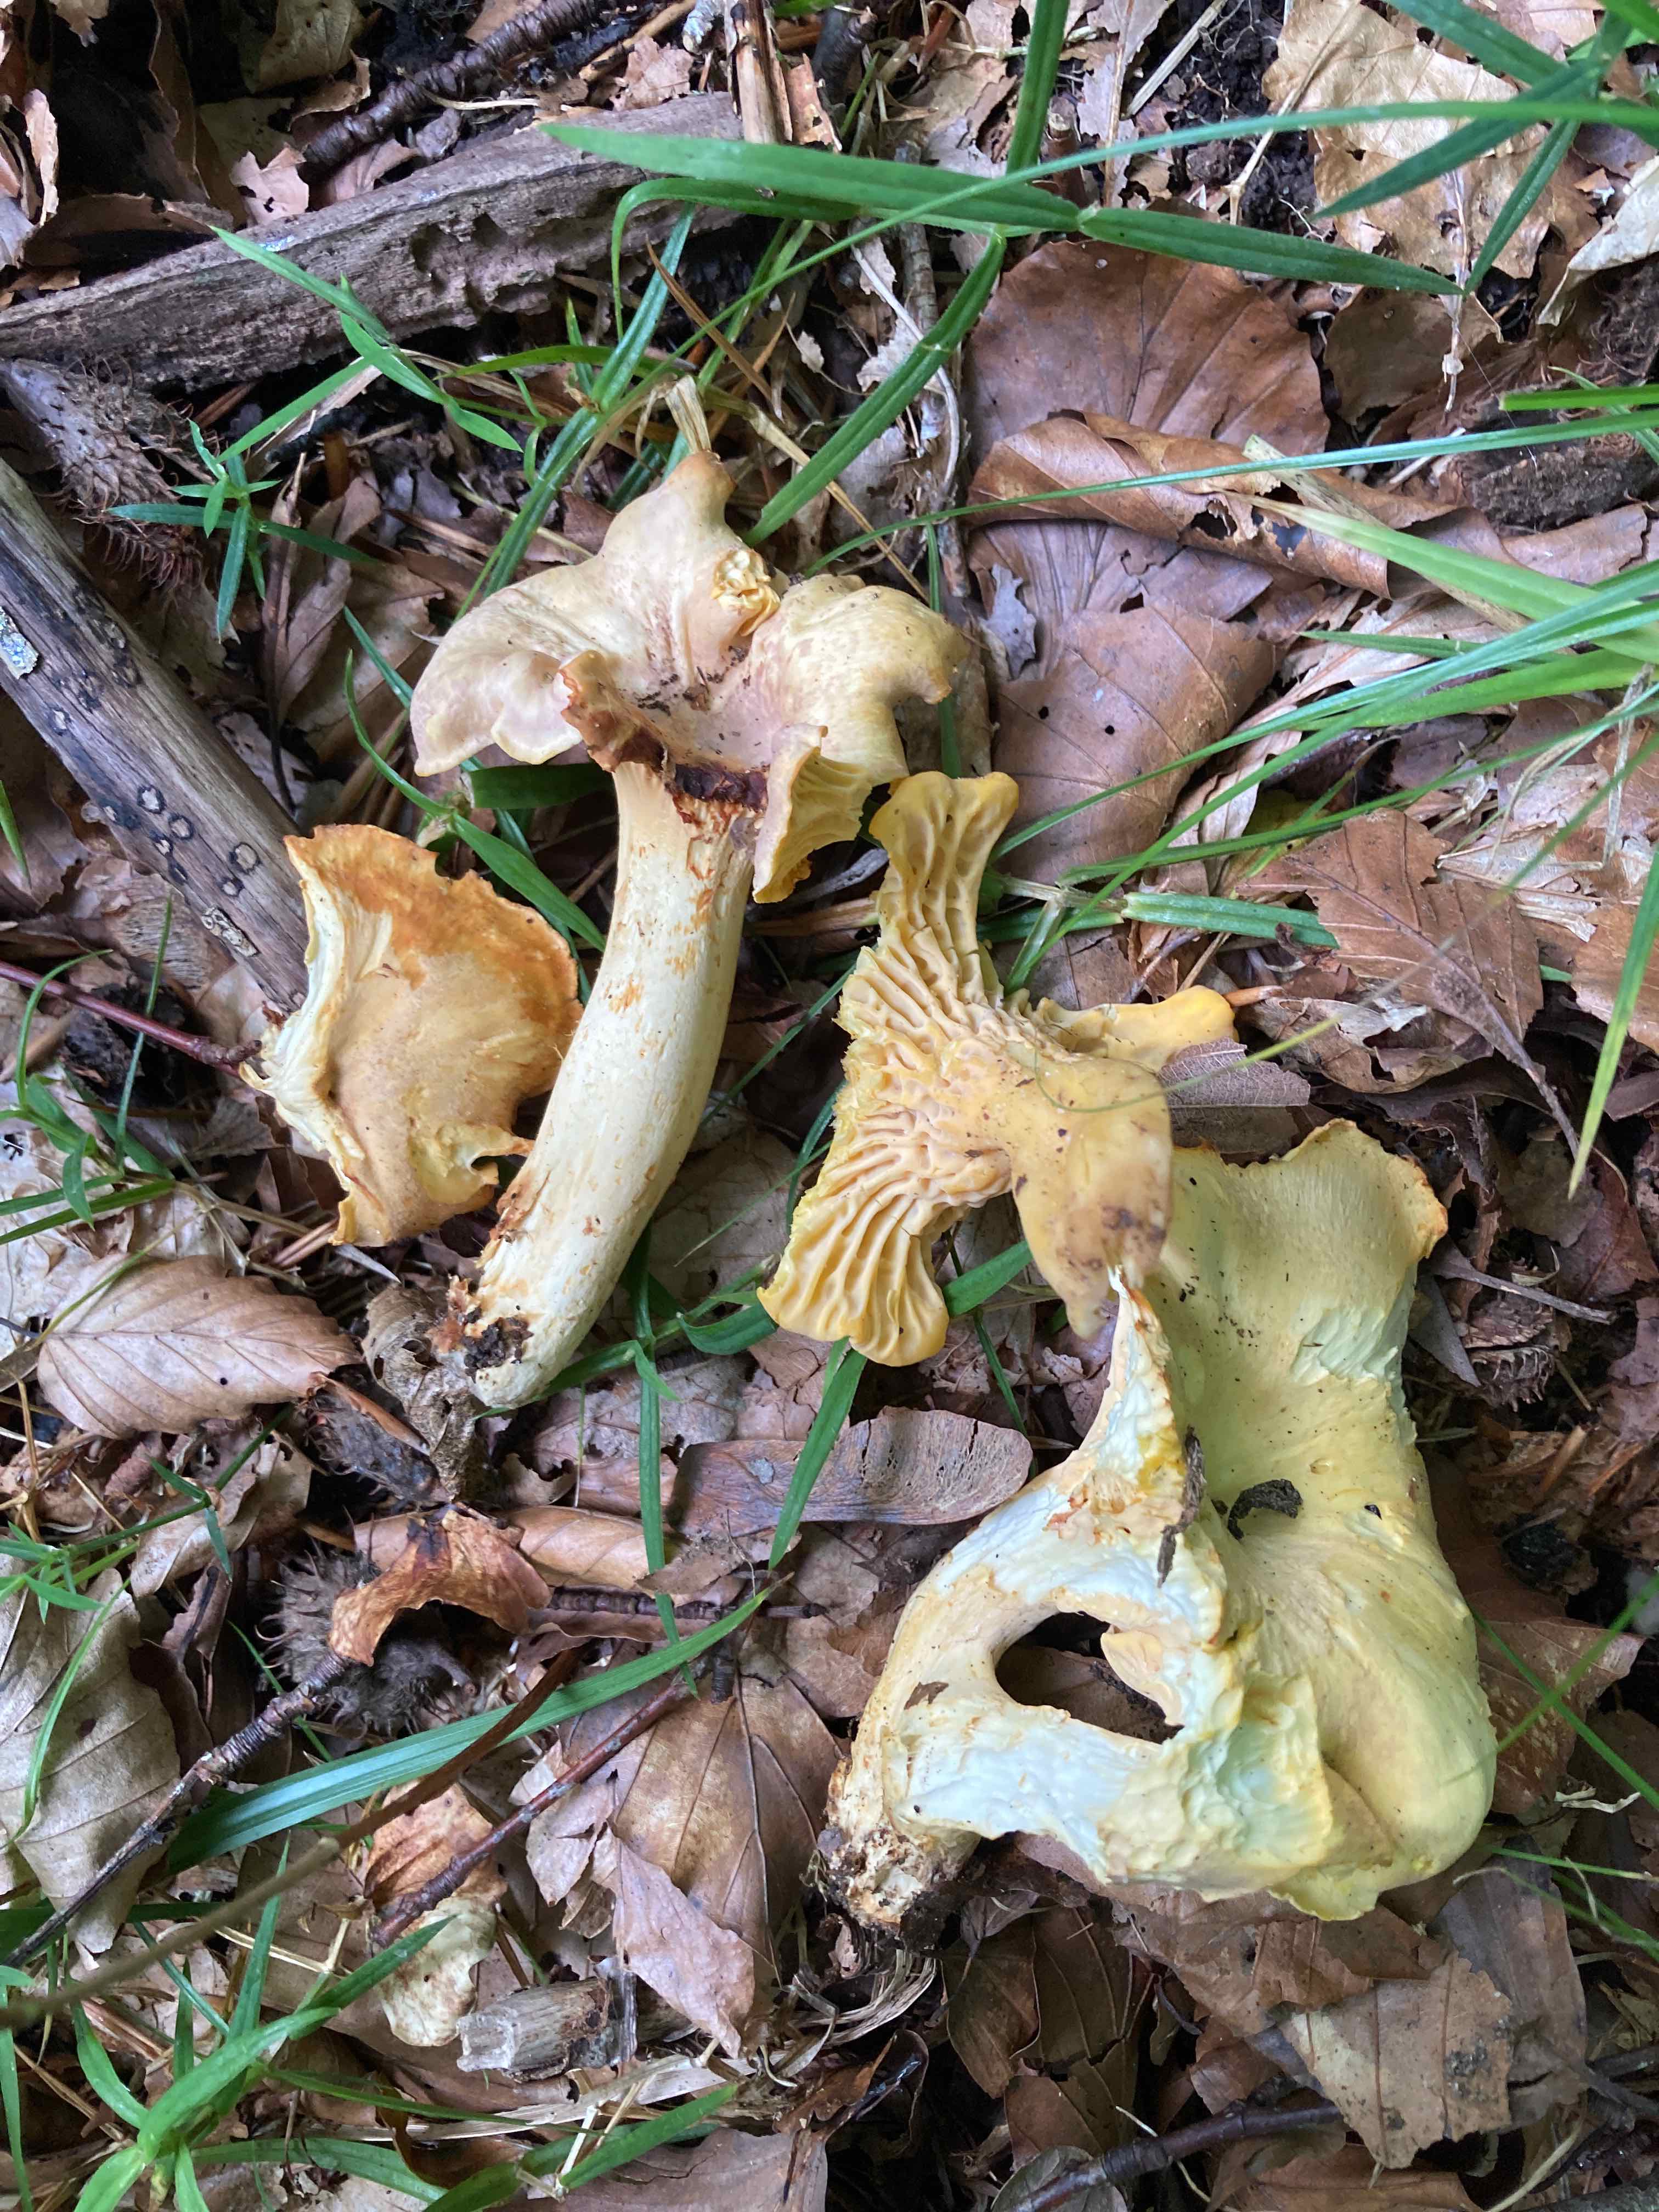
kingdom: Fungi
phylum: Basidiomycota
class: Agaricomycetes
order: Cantharellales
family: Hydnaceae
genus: Cantharellus
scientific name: Cantharellus amethysteus
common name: ametyst-kantarel
